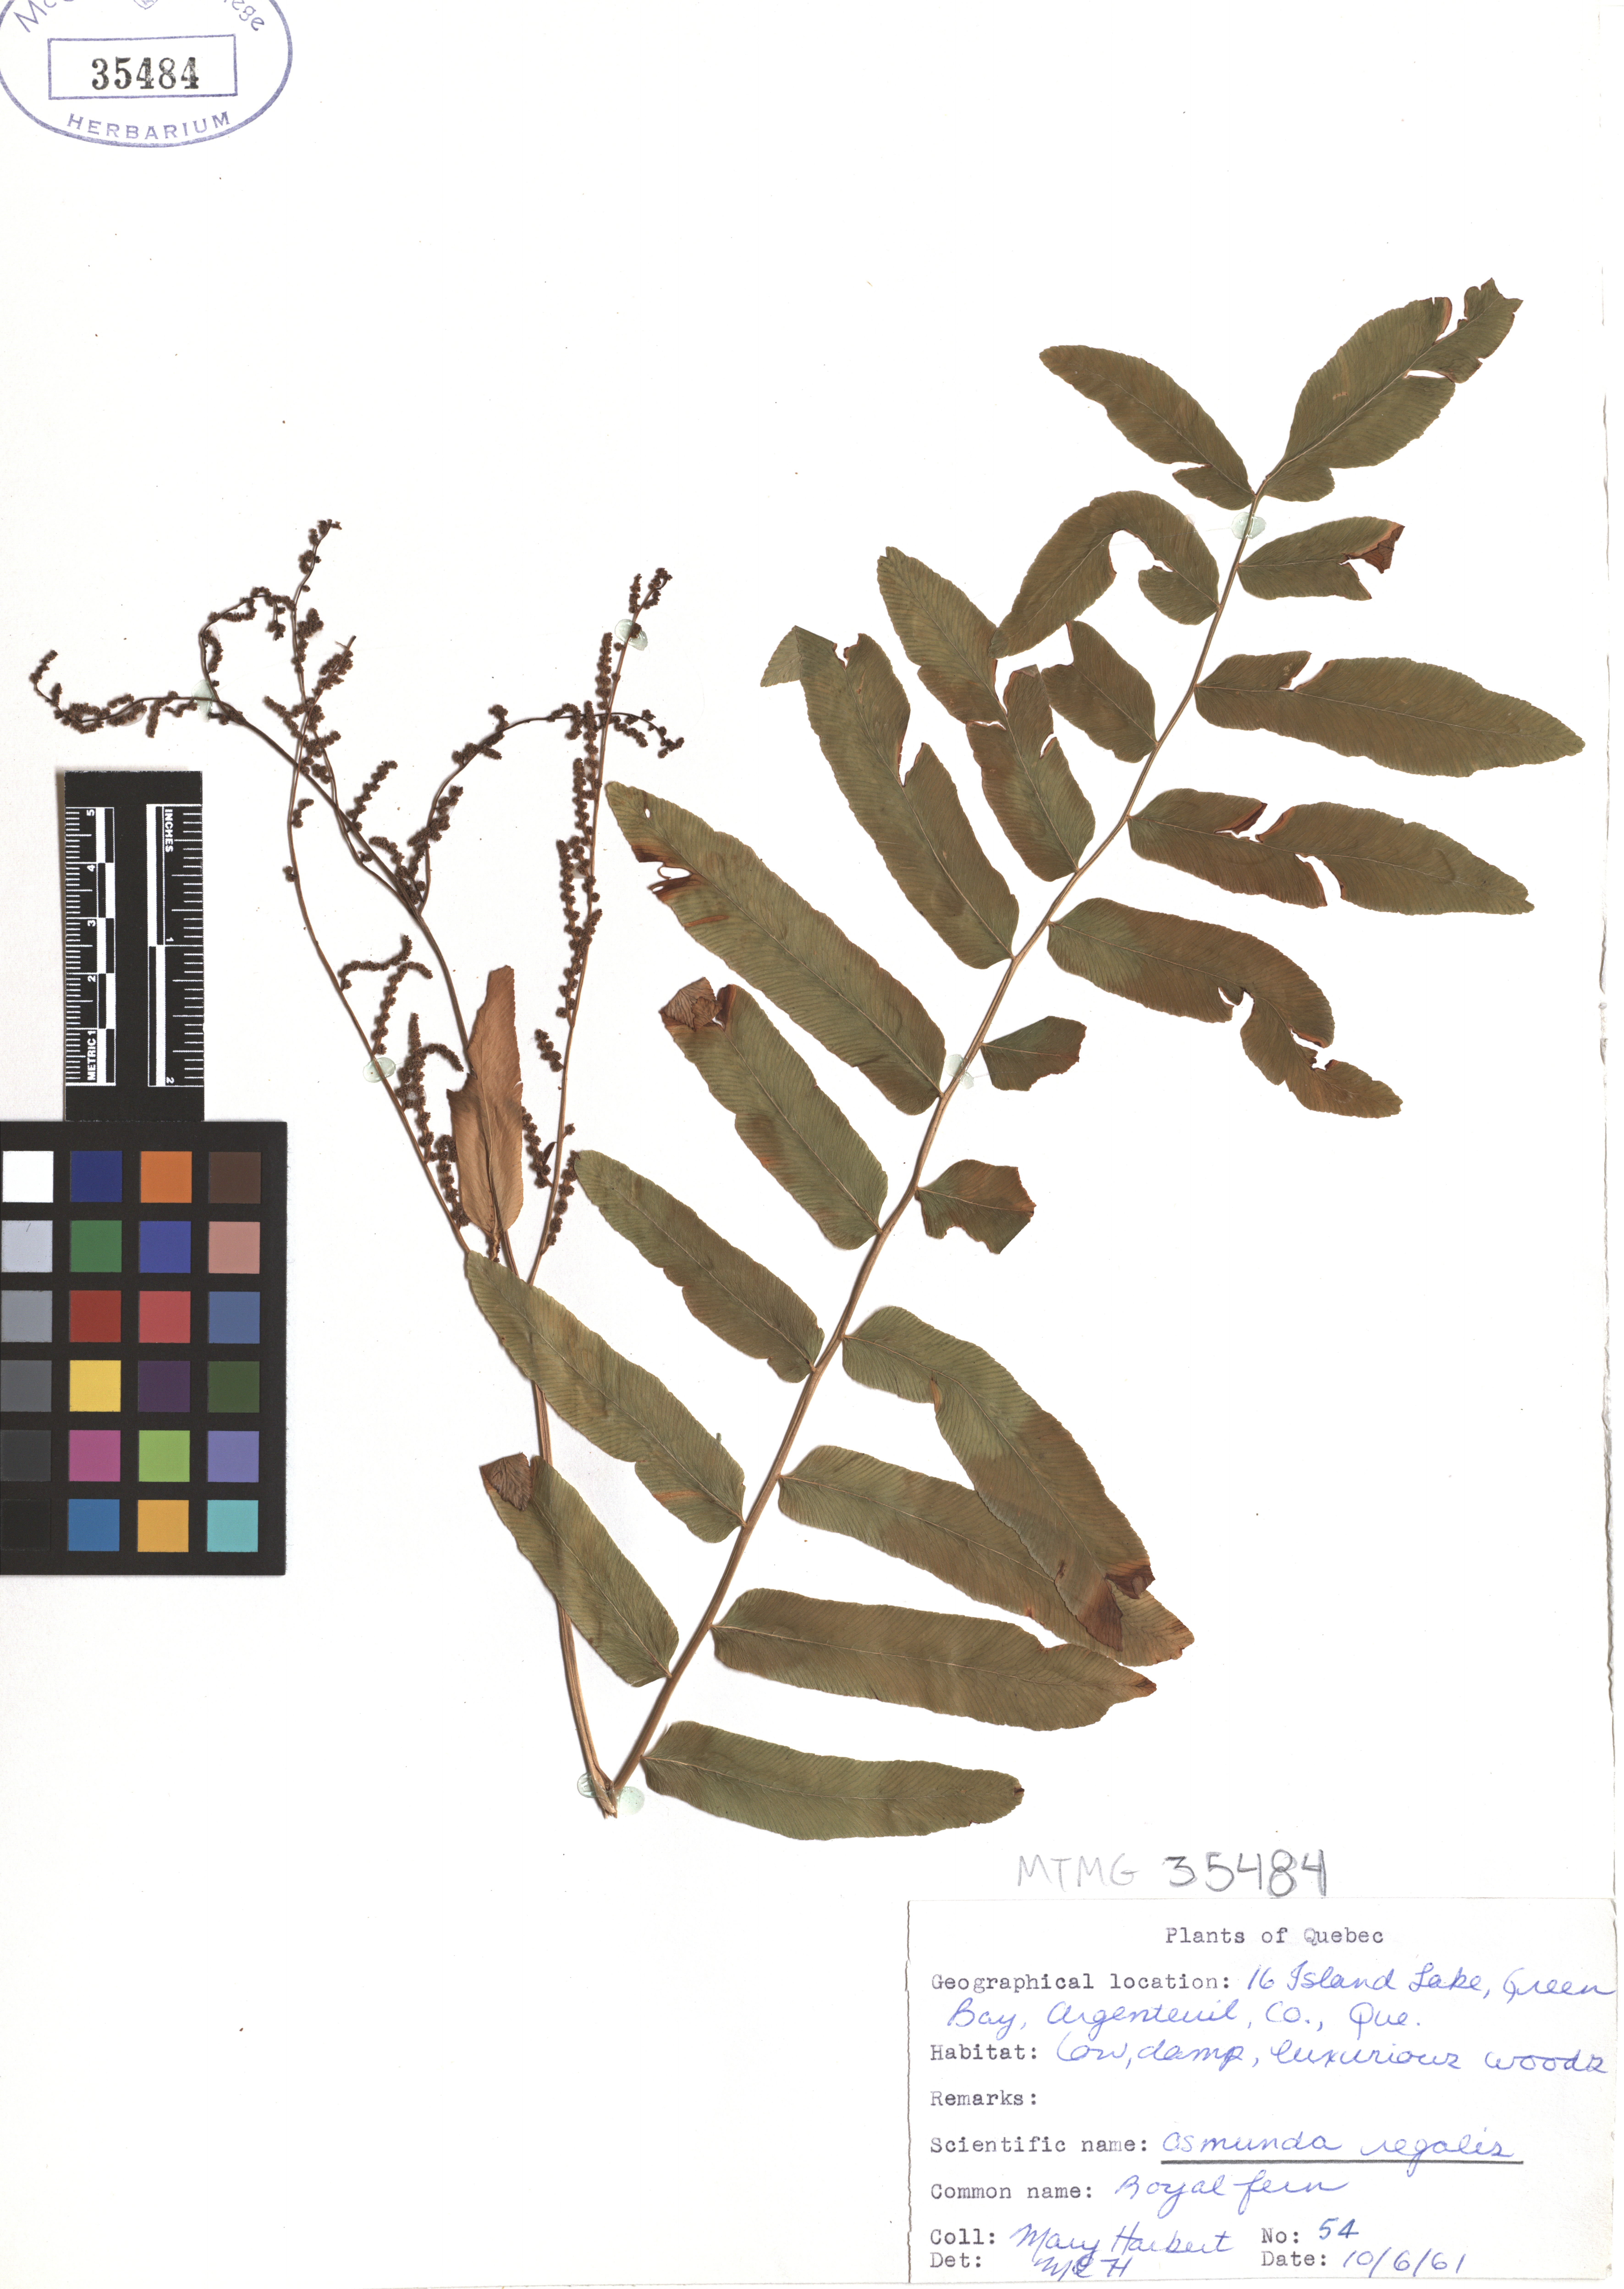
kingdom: Plantae
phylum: Tracheophyta
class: Polypodiopsida
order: Osmundales
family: Osmundaceae
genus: Osmunda
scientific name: Osmunda regalis
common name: Royal fern
